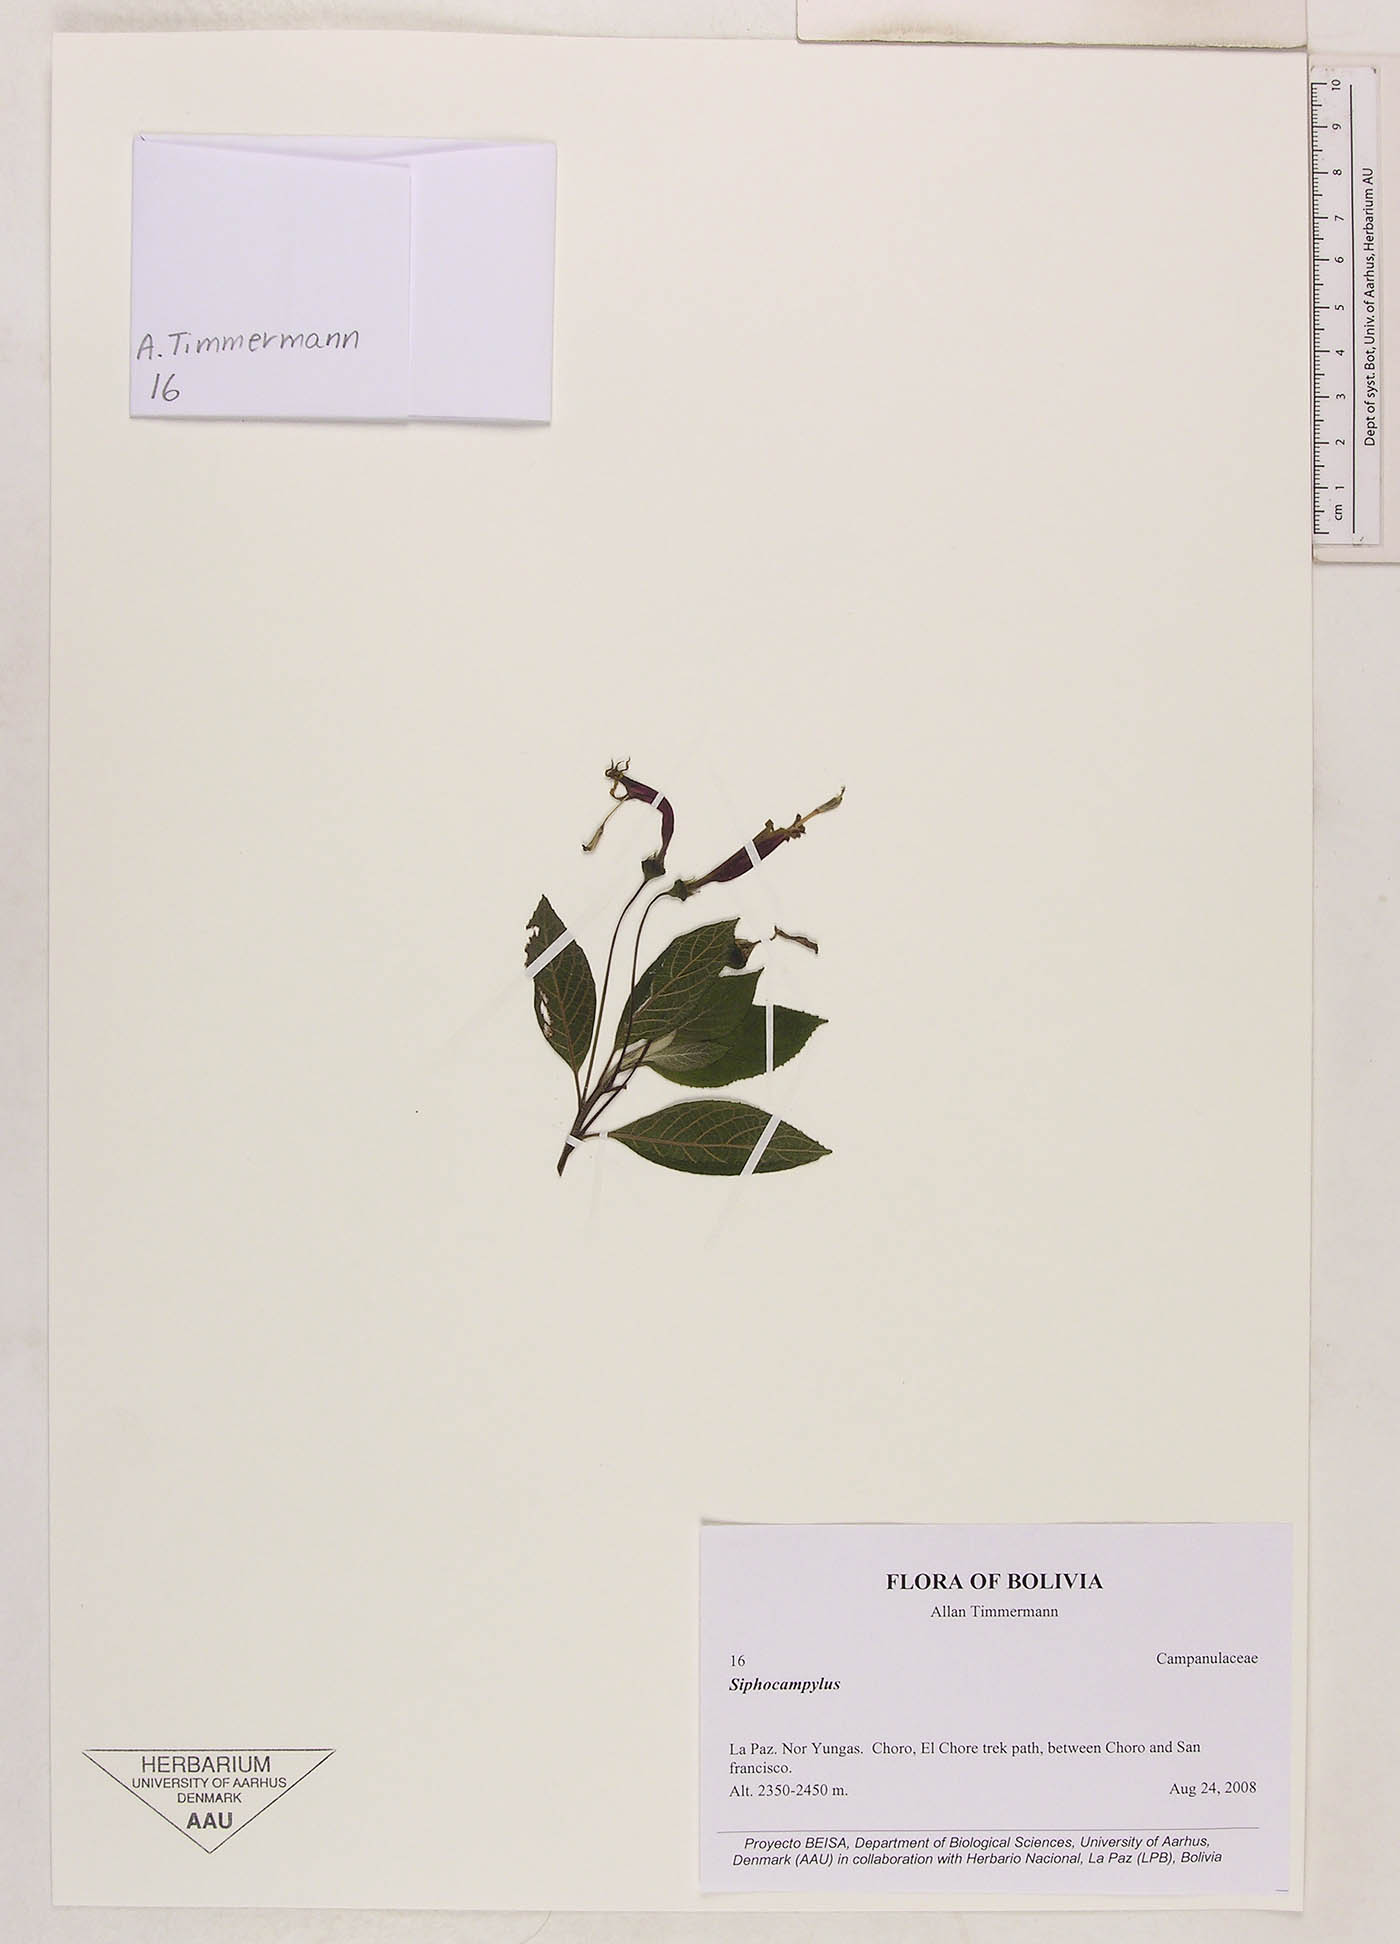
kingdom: Plantae
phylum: Tracheophyta
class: Magnoliopsida
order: Asterales
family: Campanulaceae
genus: Siphocampylus
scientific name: Siphocampylus
